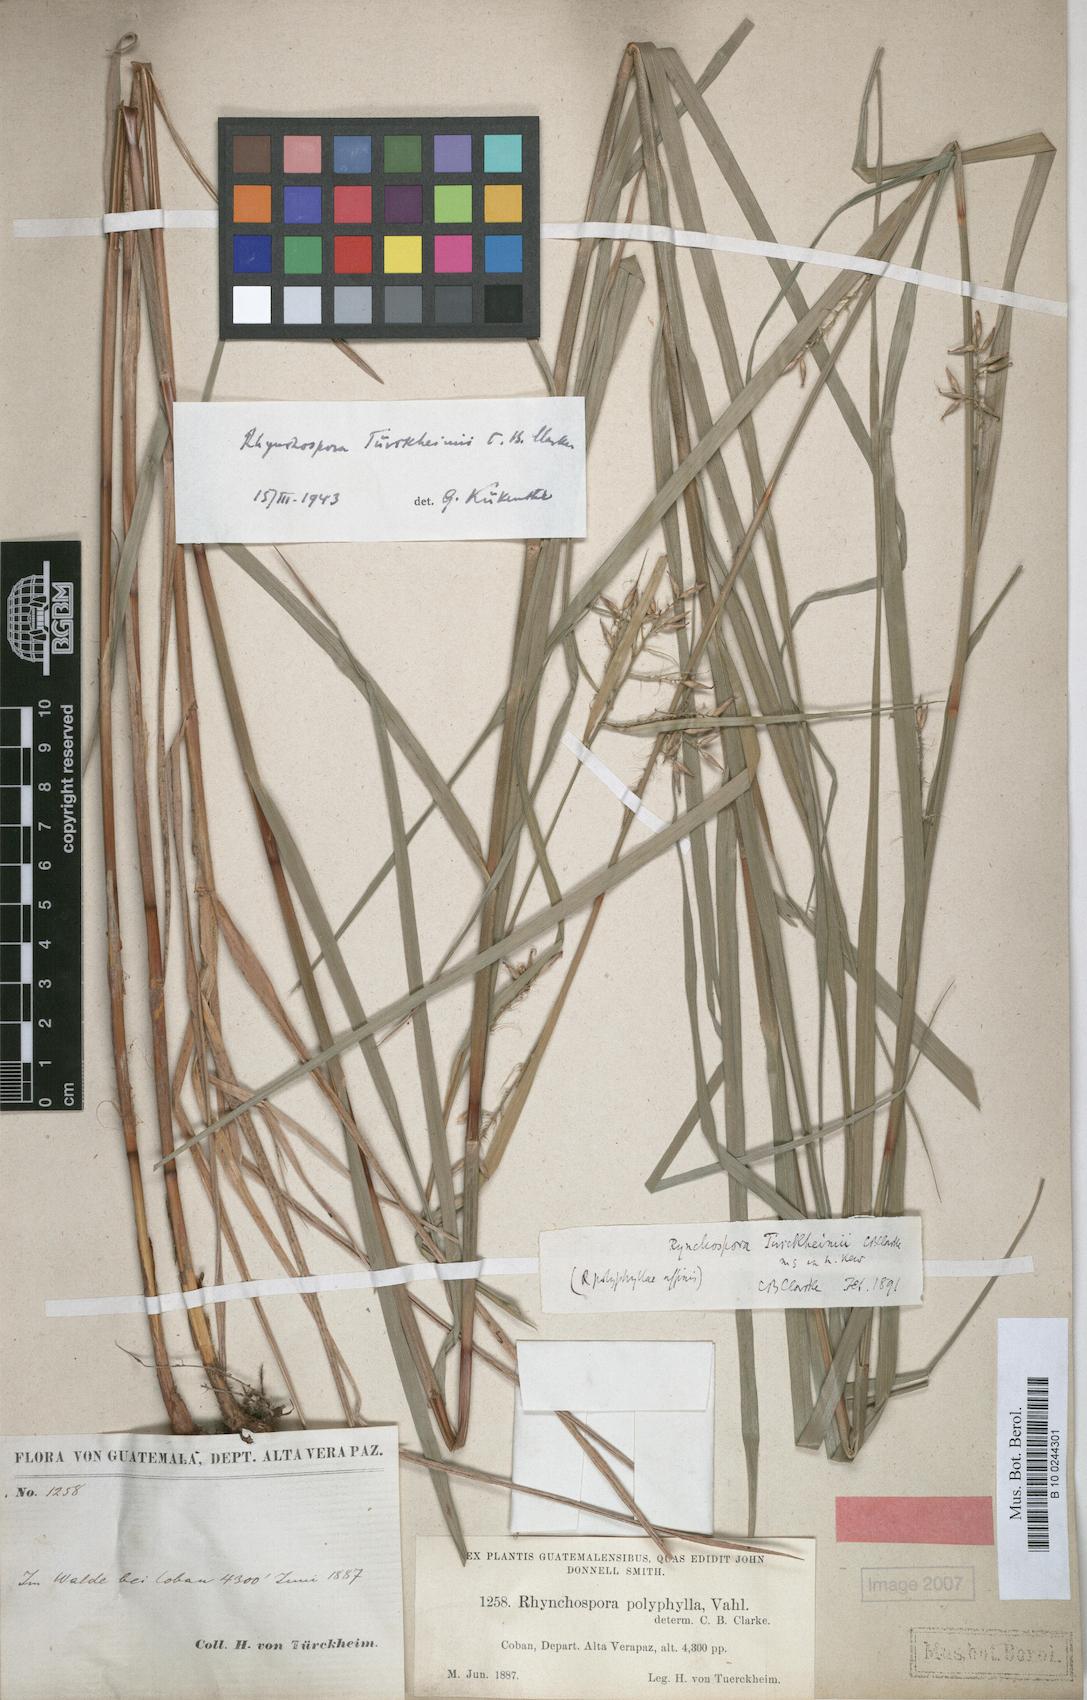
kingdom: Plantae
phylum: Tracheophyta
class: Liliopsida
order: Poales
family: Cyperaceae
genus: Rhynchospora
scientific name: Rhynchospora tuerckheimii
